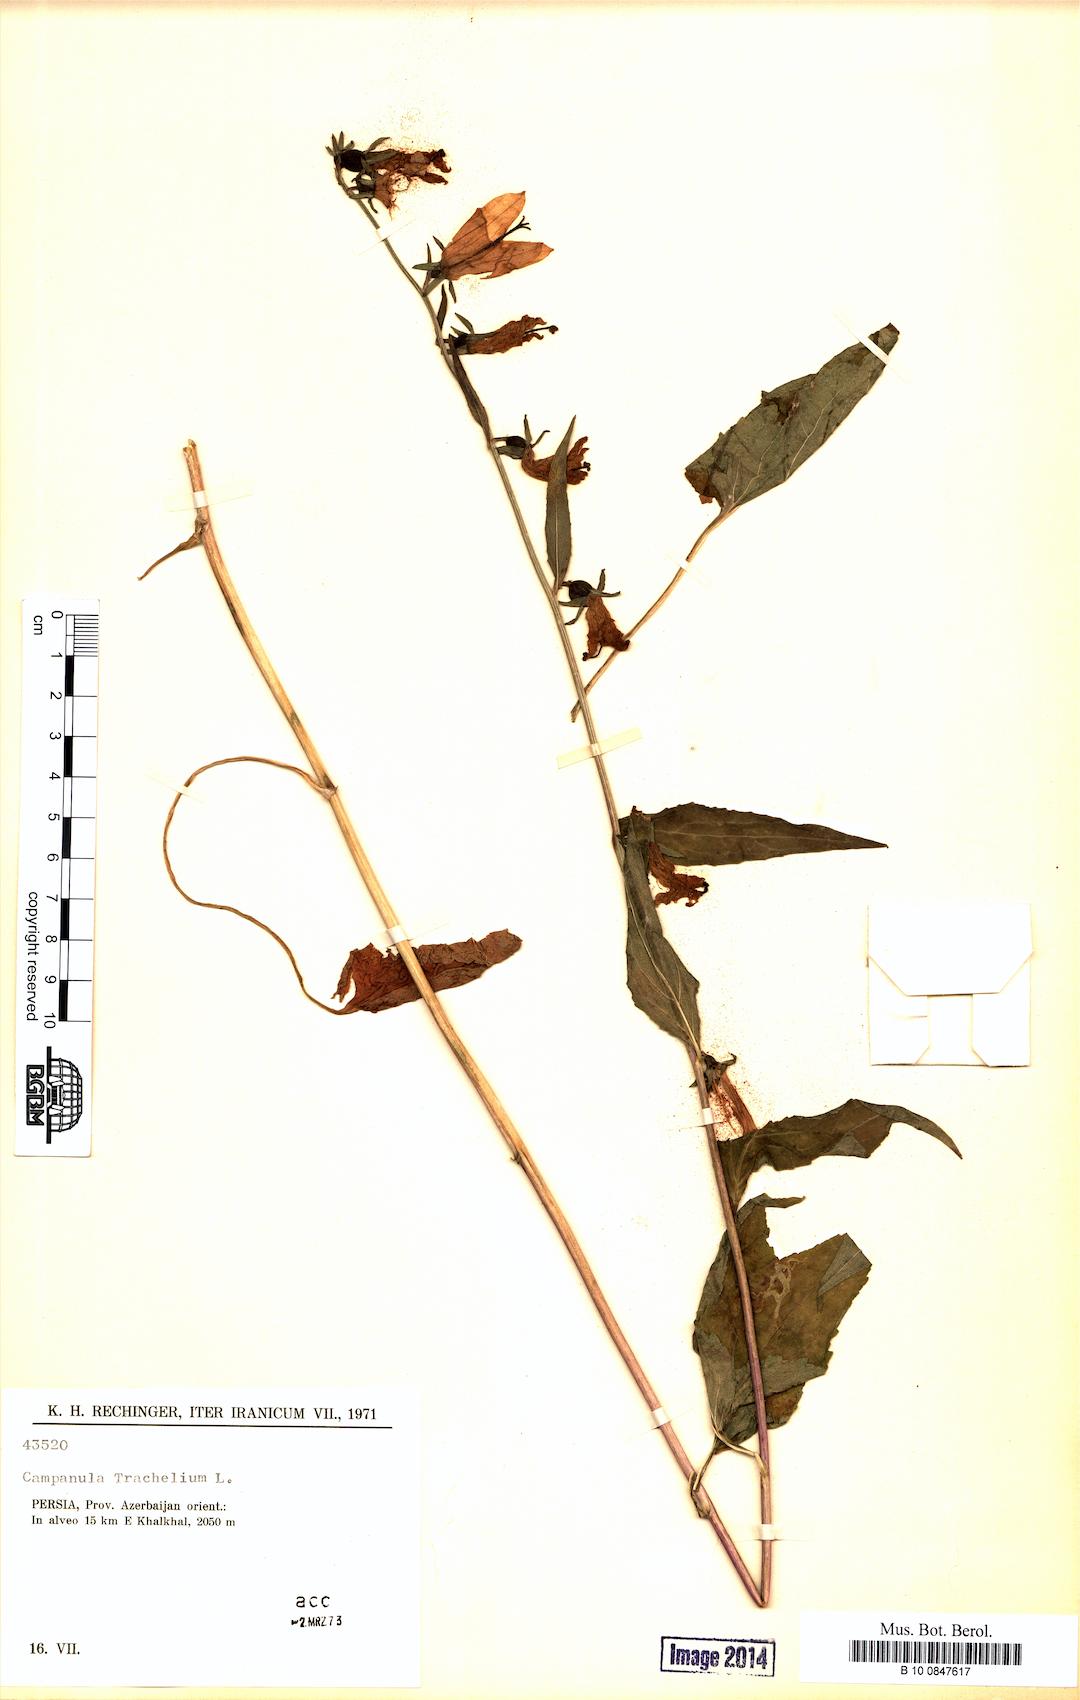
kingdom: Plantae
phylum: Tracheophyta
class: Magnoliopsida
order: Asterales
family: Campanulaceae
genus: Campanula
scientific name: Campanula trachelium
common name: Nettle-leaved bellflower
